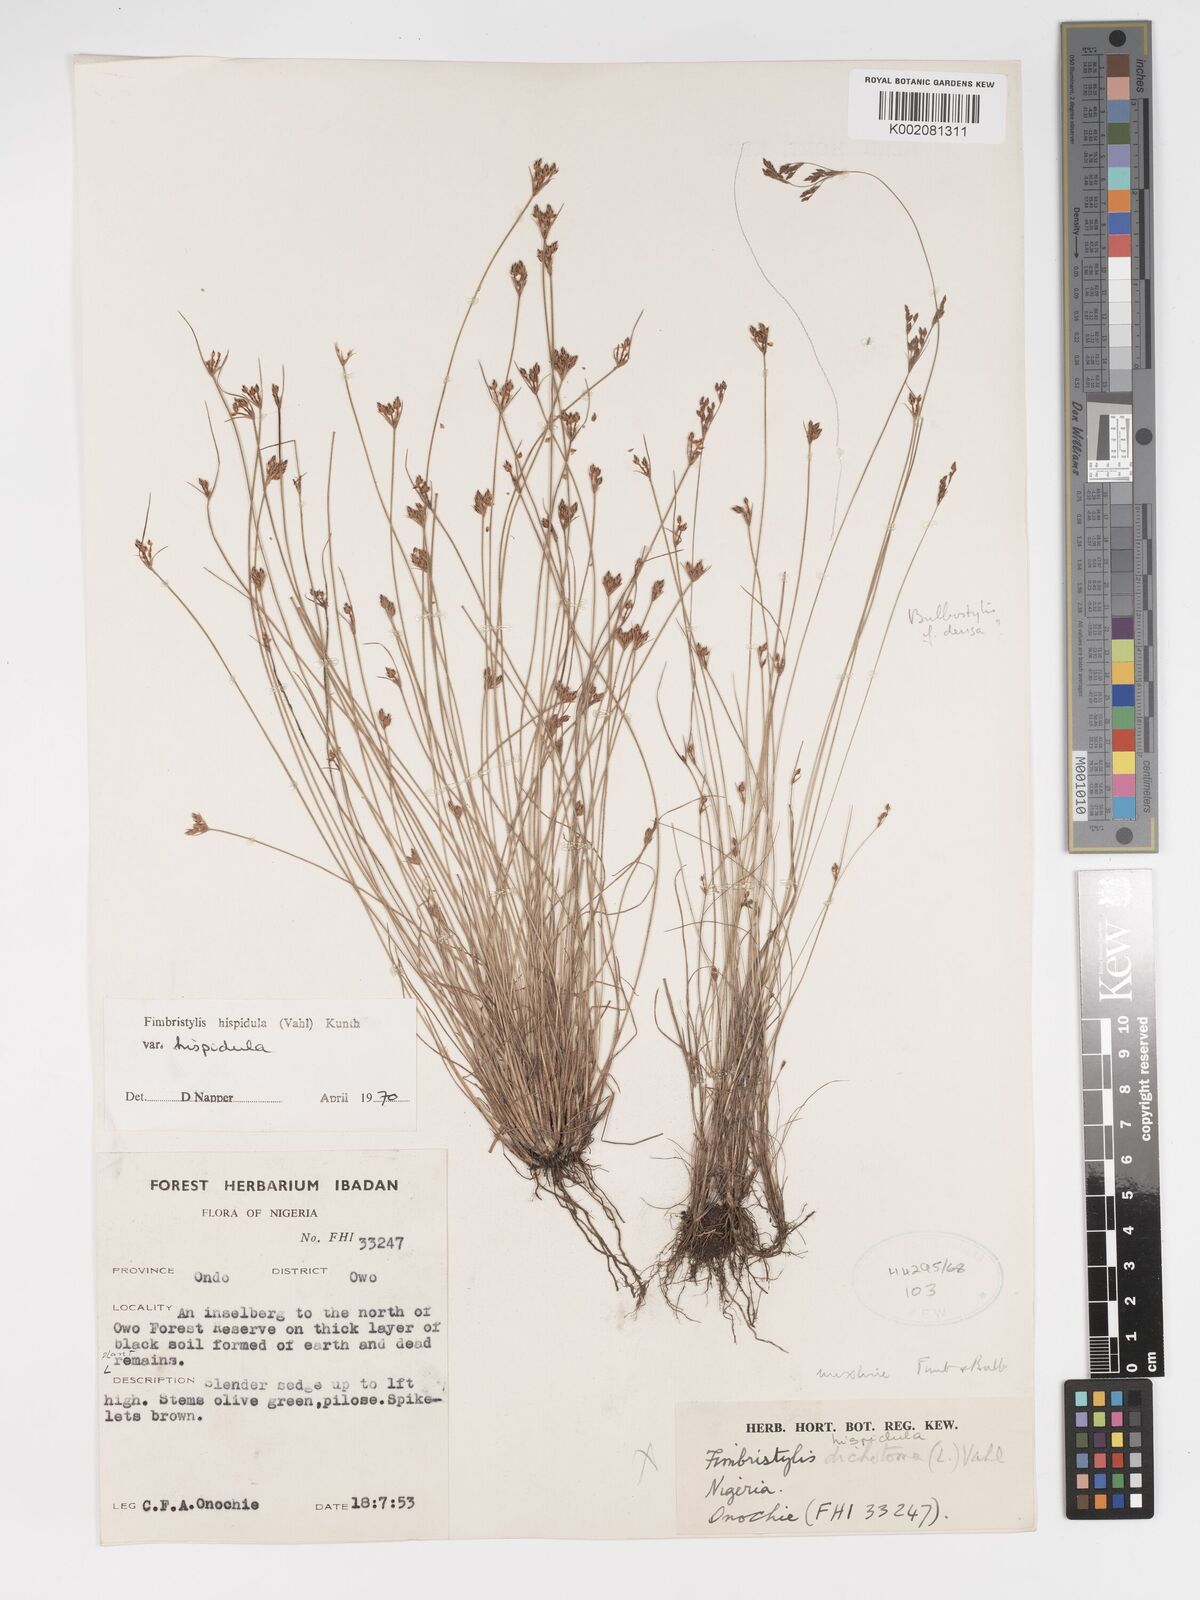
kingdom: Plantae
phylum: Tracheophyta
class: Liliopsida
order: Poales
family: Cyperaceae
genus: Bulbostylis
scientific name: Bulbostylis hispidula
